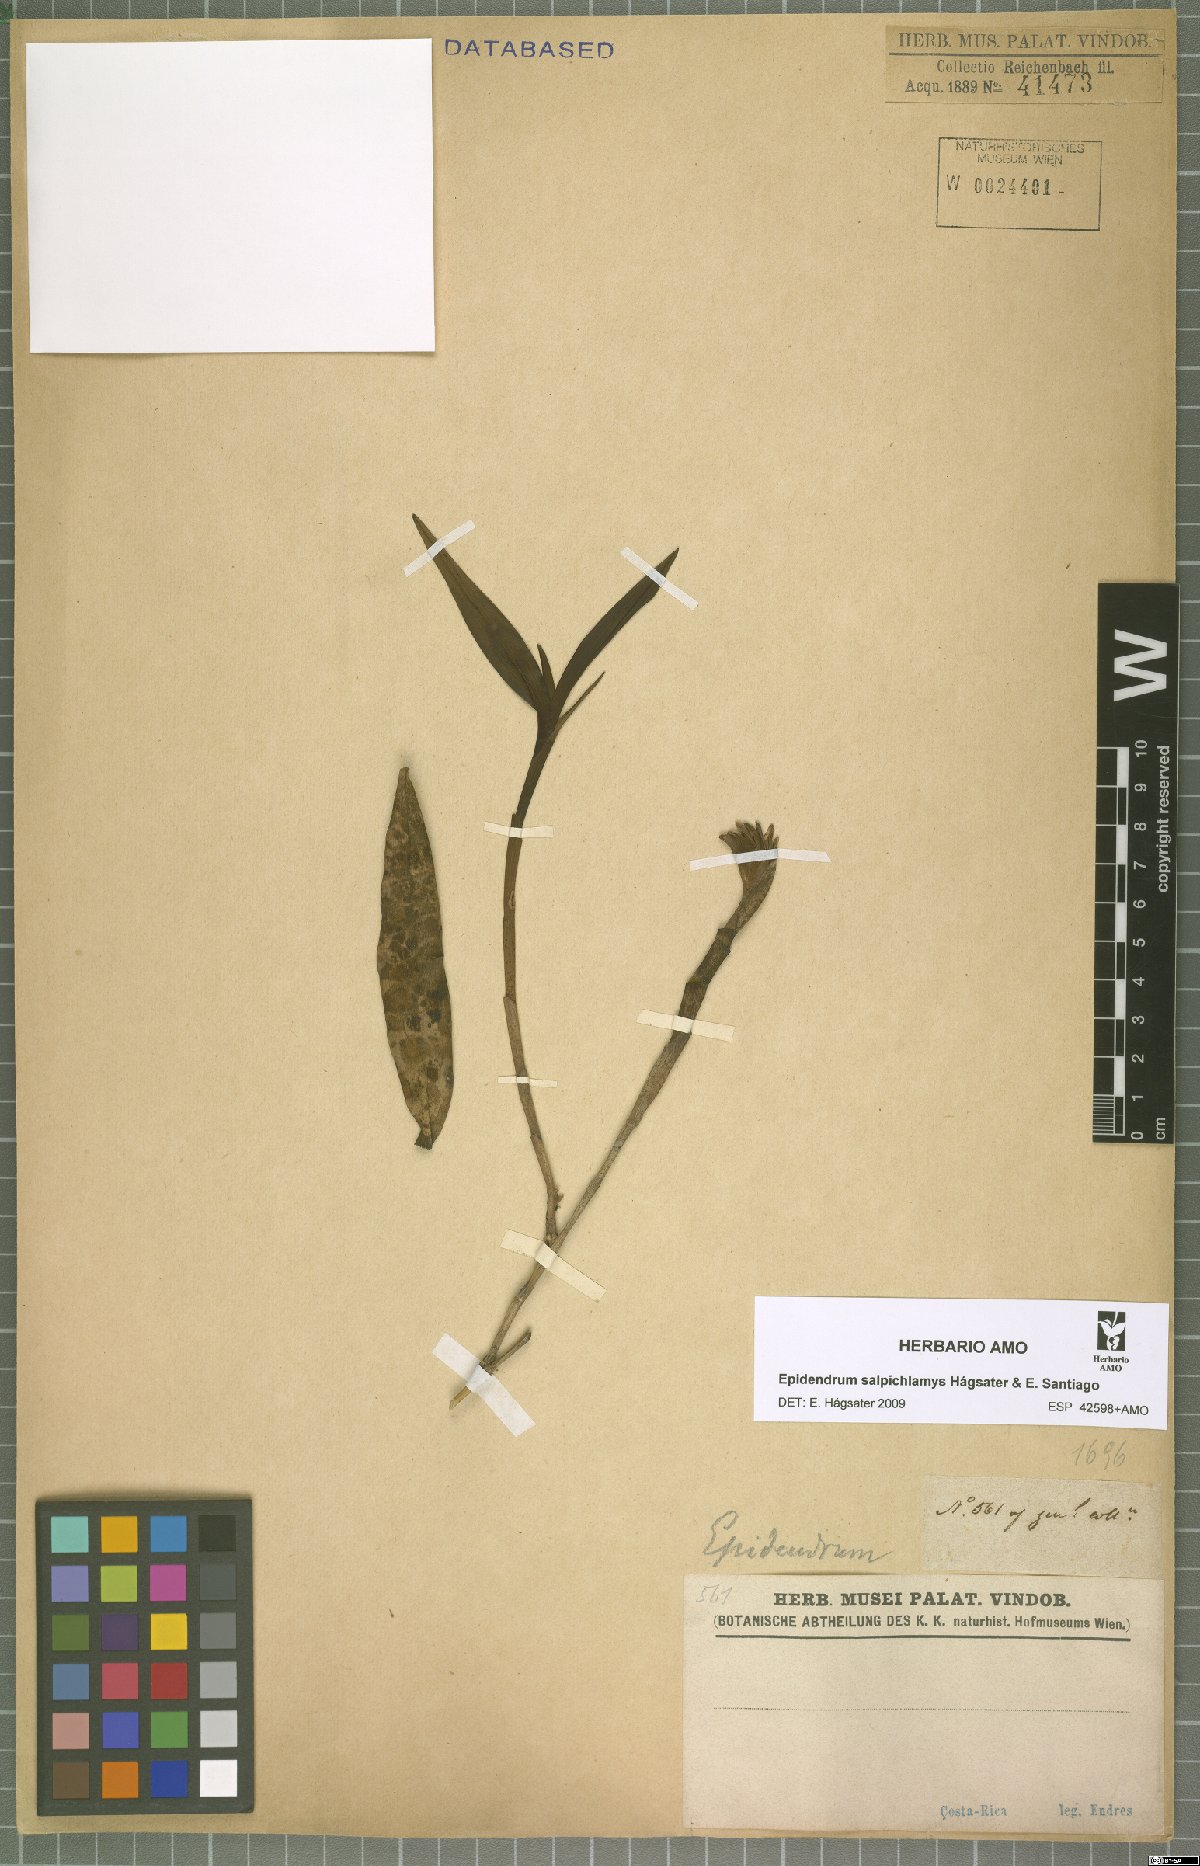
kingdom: Plantae
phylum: Tracheophyta
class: Liliopsida
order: Asparagales
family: Orchidaceae
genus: Epidendrum
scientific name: Epidendrum salpichlamys
